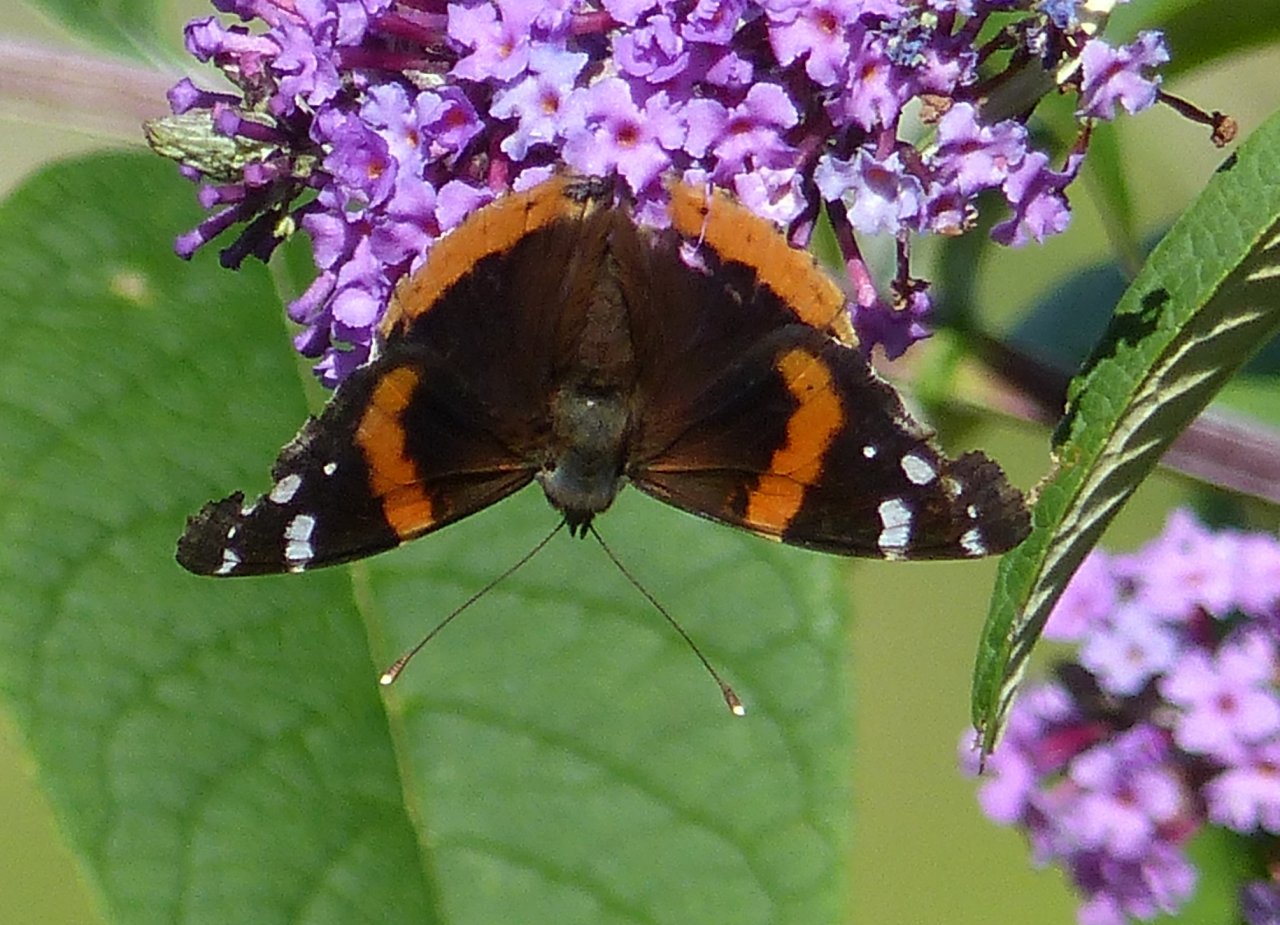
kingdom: Animalia
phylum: Arthropoda
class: Insecta
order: Lepidoptera
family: Nymphalidae
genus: Vanessa
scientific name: Vanessa atalanta
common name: Red Admiral
